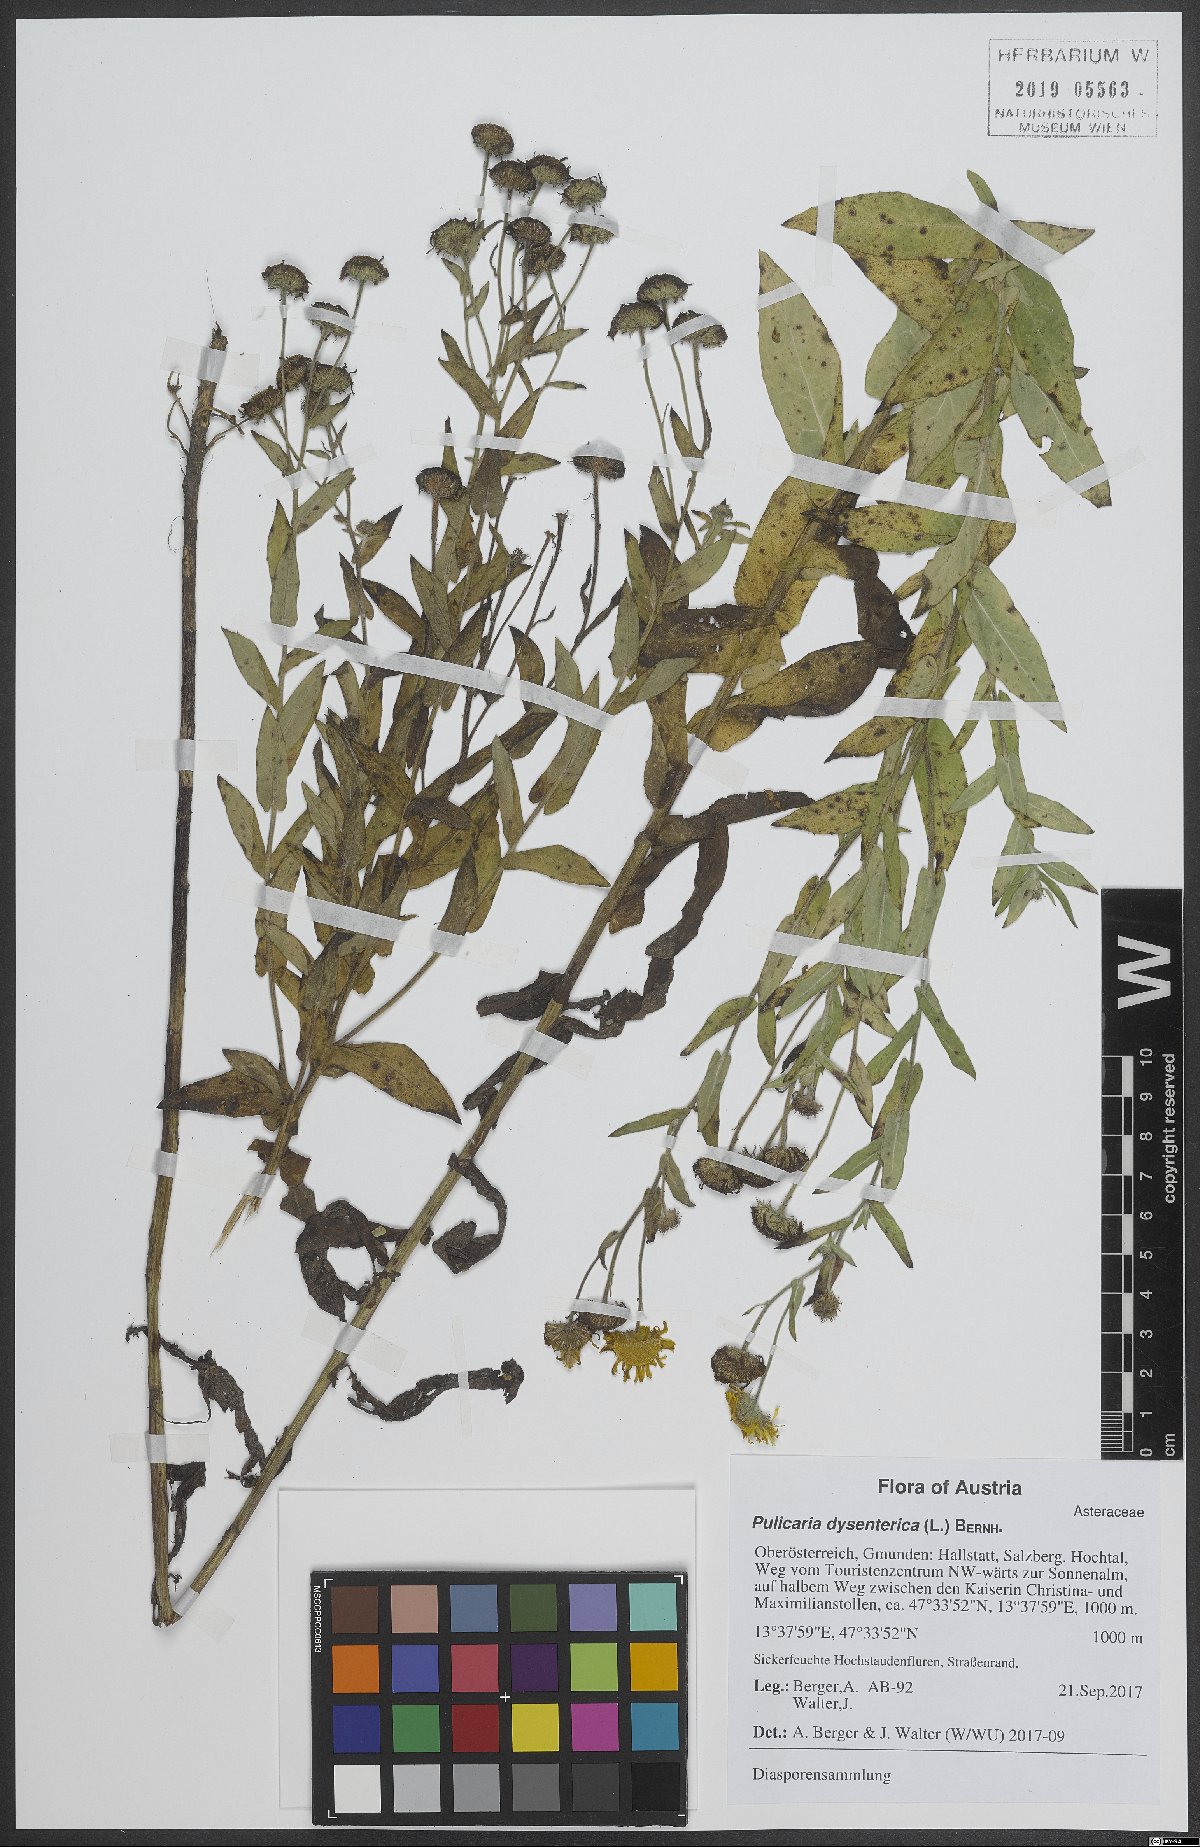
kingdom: Plantae
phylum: Tracheophyta
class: Magnoliopsida
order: Asterales
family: Asteraceae
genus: Pulicaria
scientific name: Pulicaria dysenterica
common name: Common fleabane
